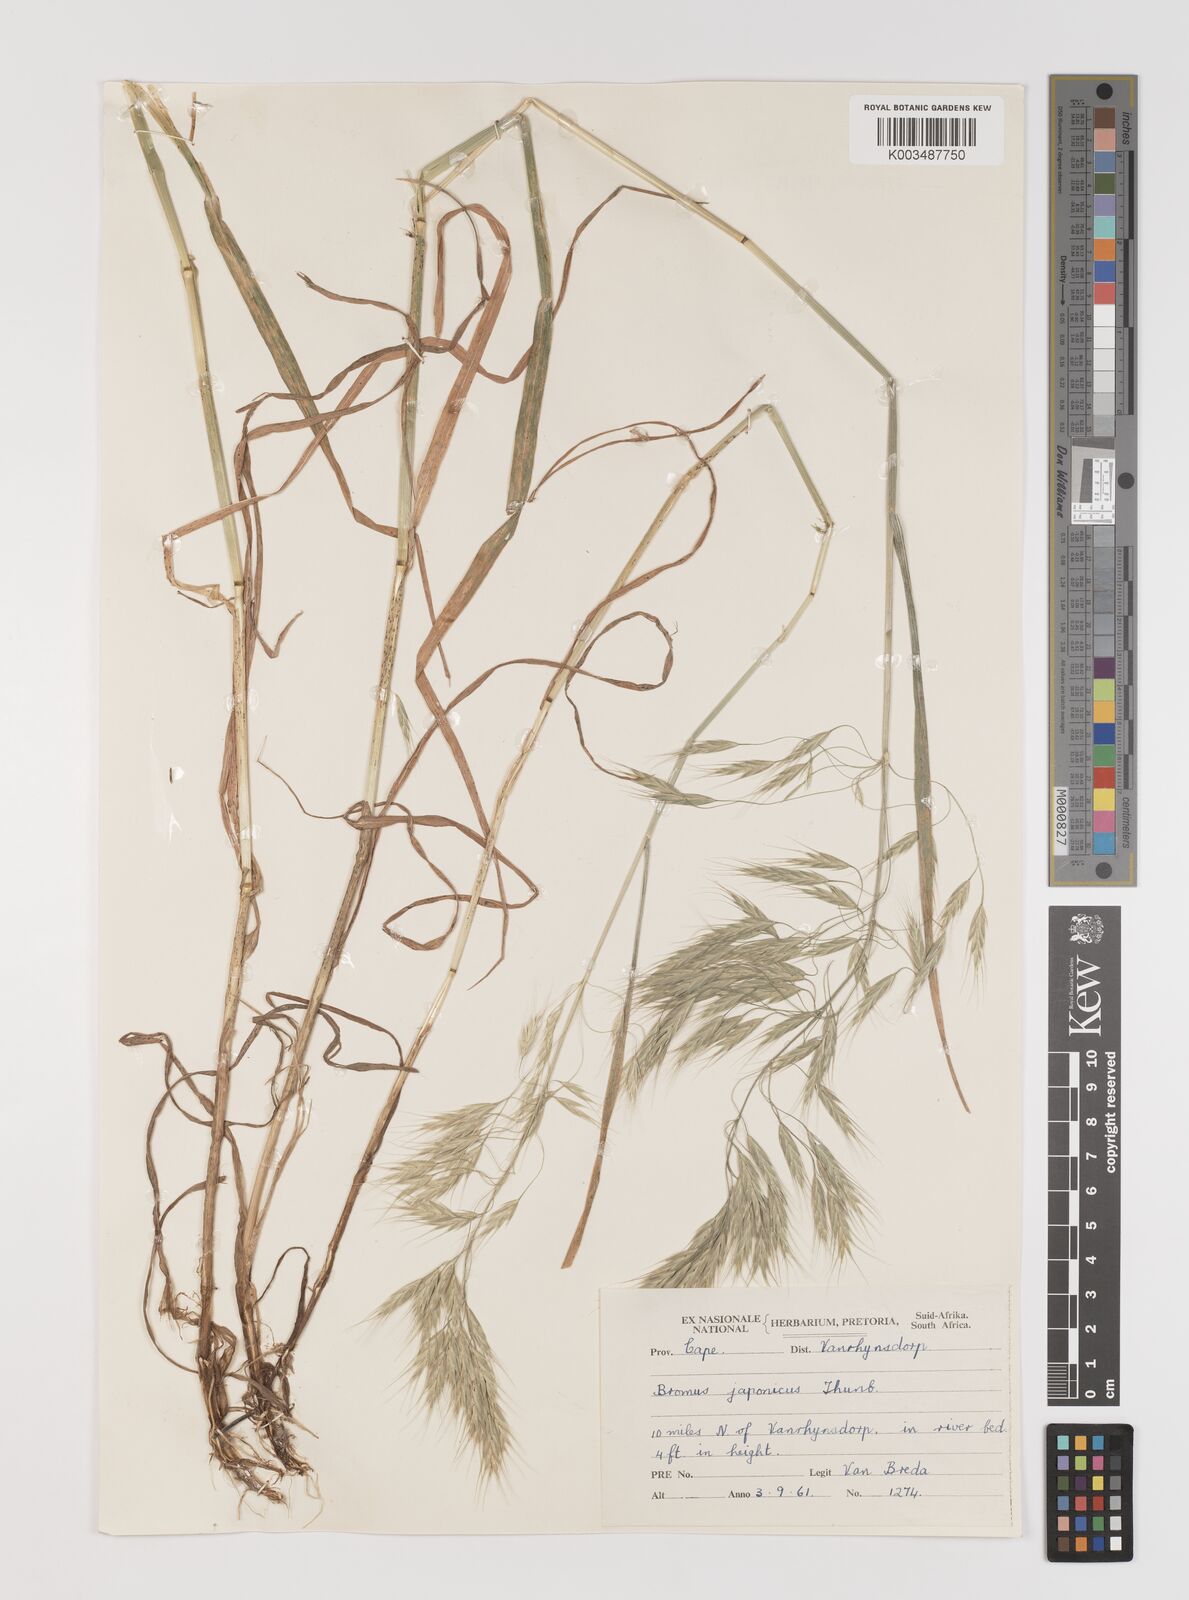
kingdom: Plantae
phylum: Tracheophyta
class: Liliopsida
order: Poales
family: Poaceae
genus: Bromus
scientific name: Bromus pectinatus
